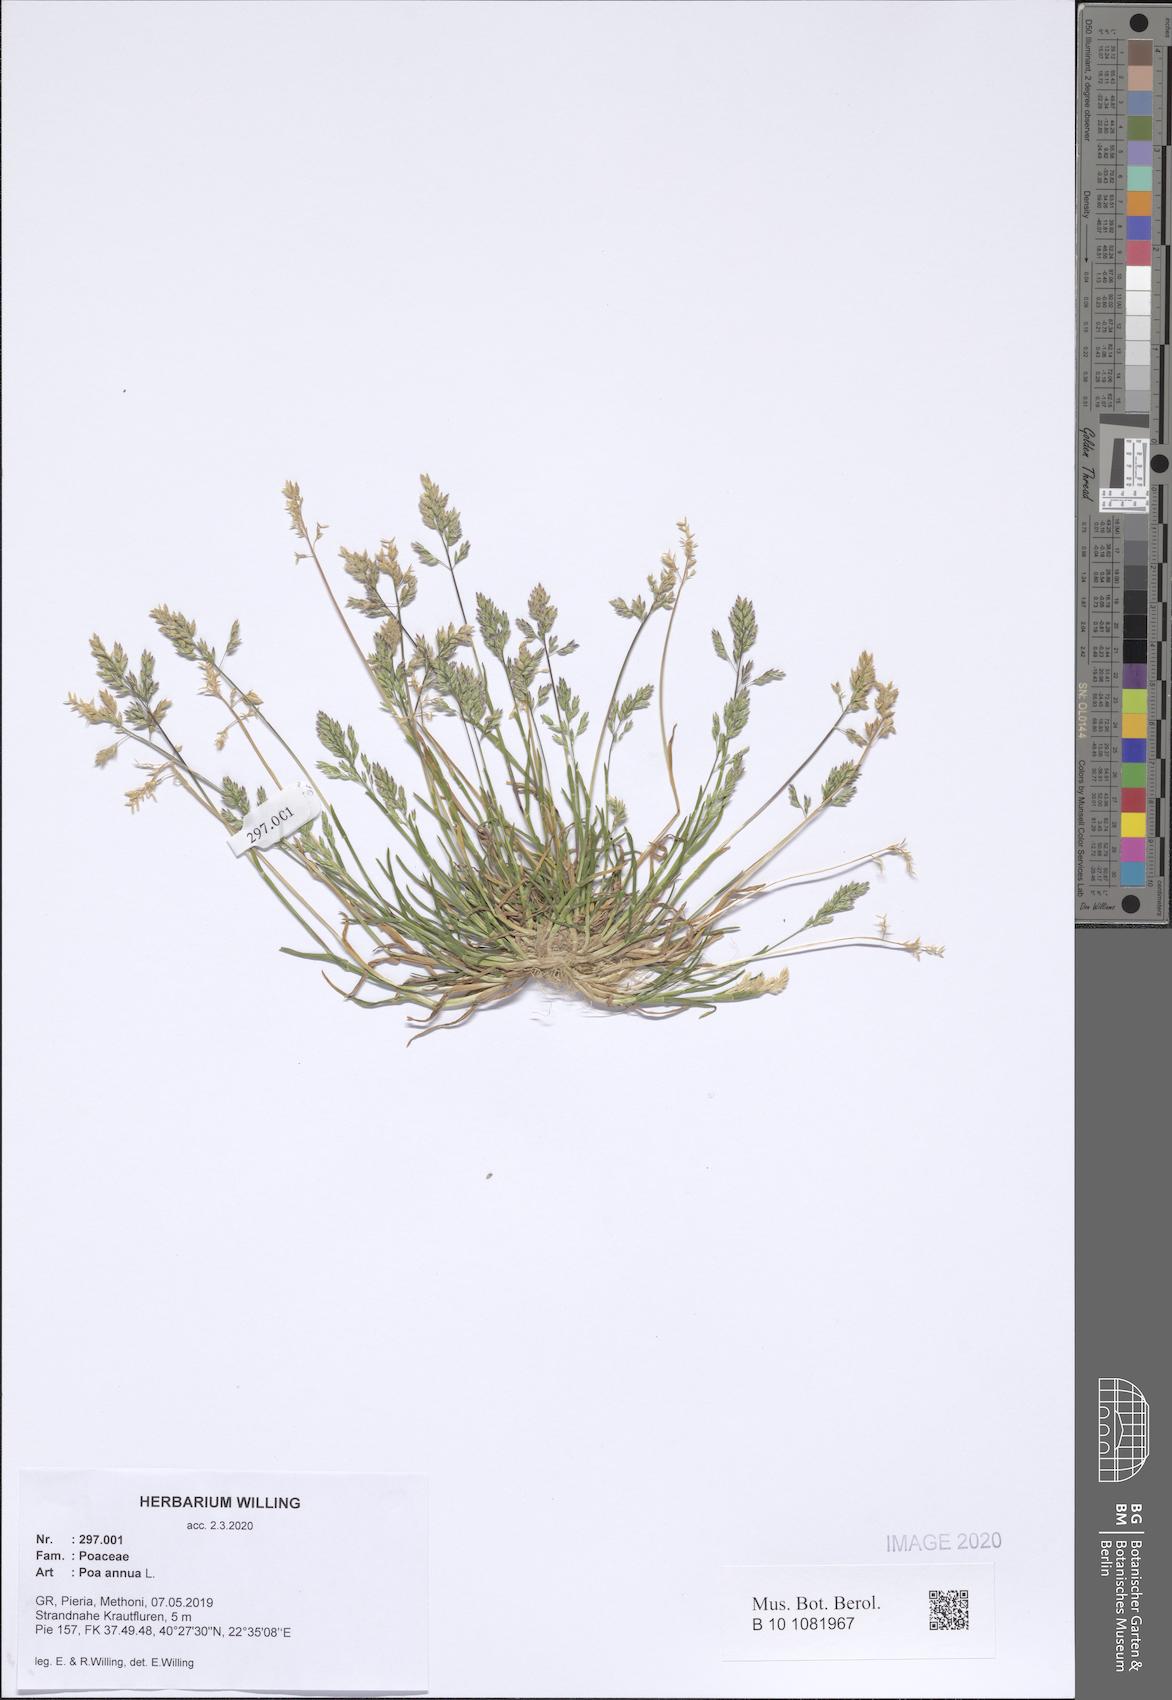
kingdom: Plantae
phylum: Tracheophyta
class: Liliopsida
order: Poales
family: Poaceae
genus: Poa
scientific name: Poa annua
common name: Annual bluegrass
